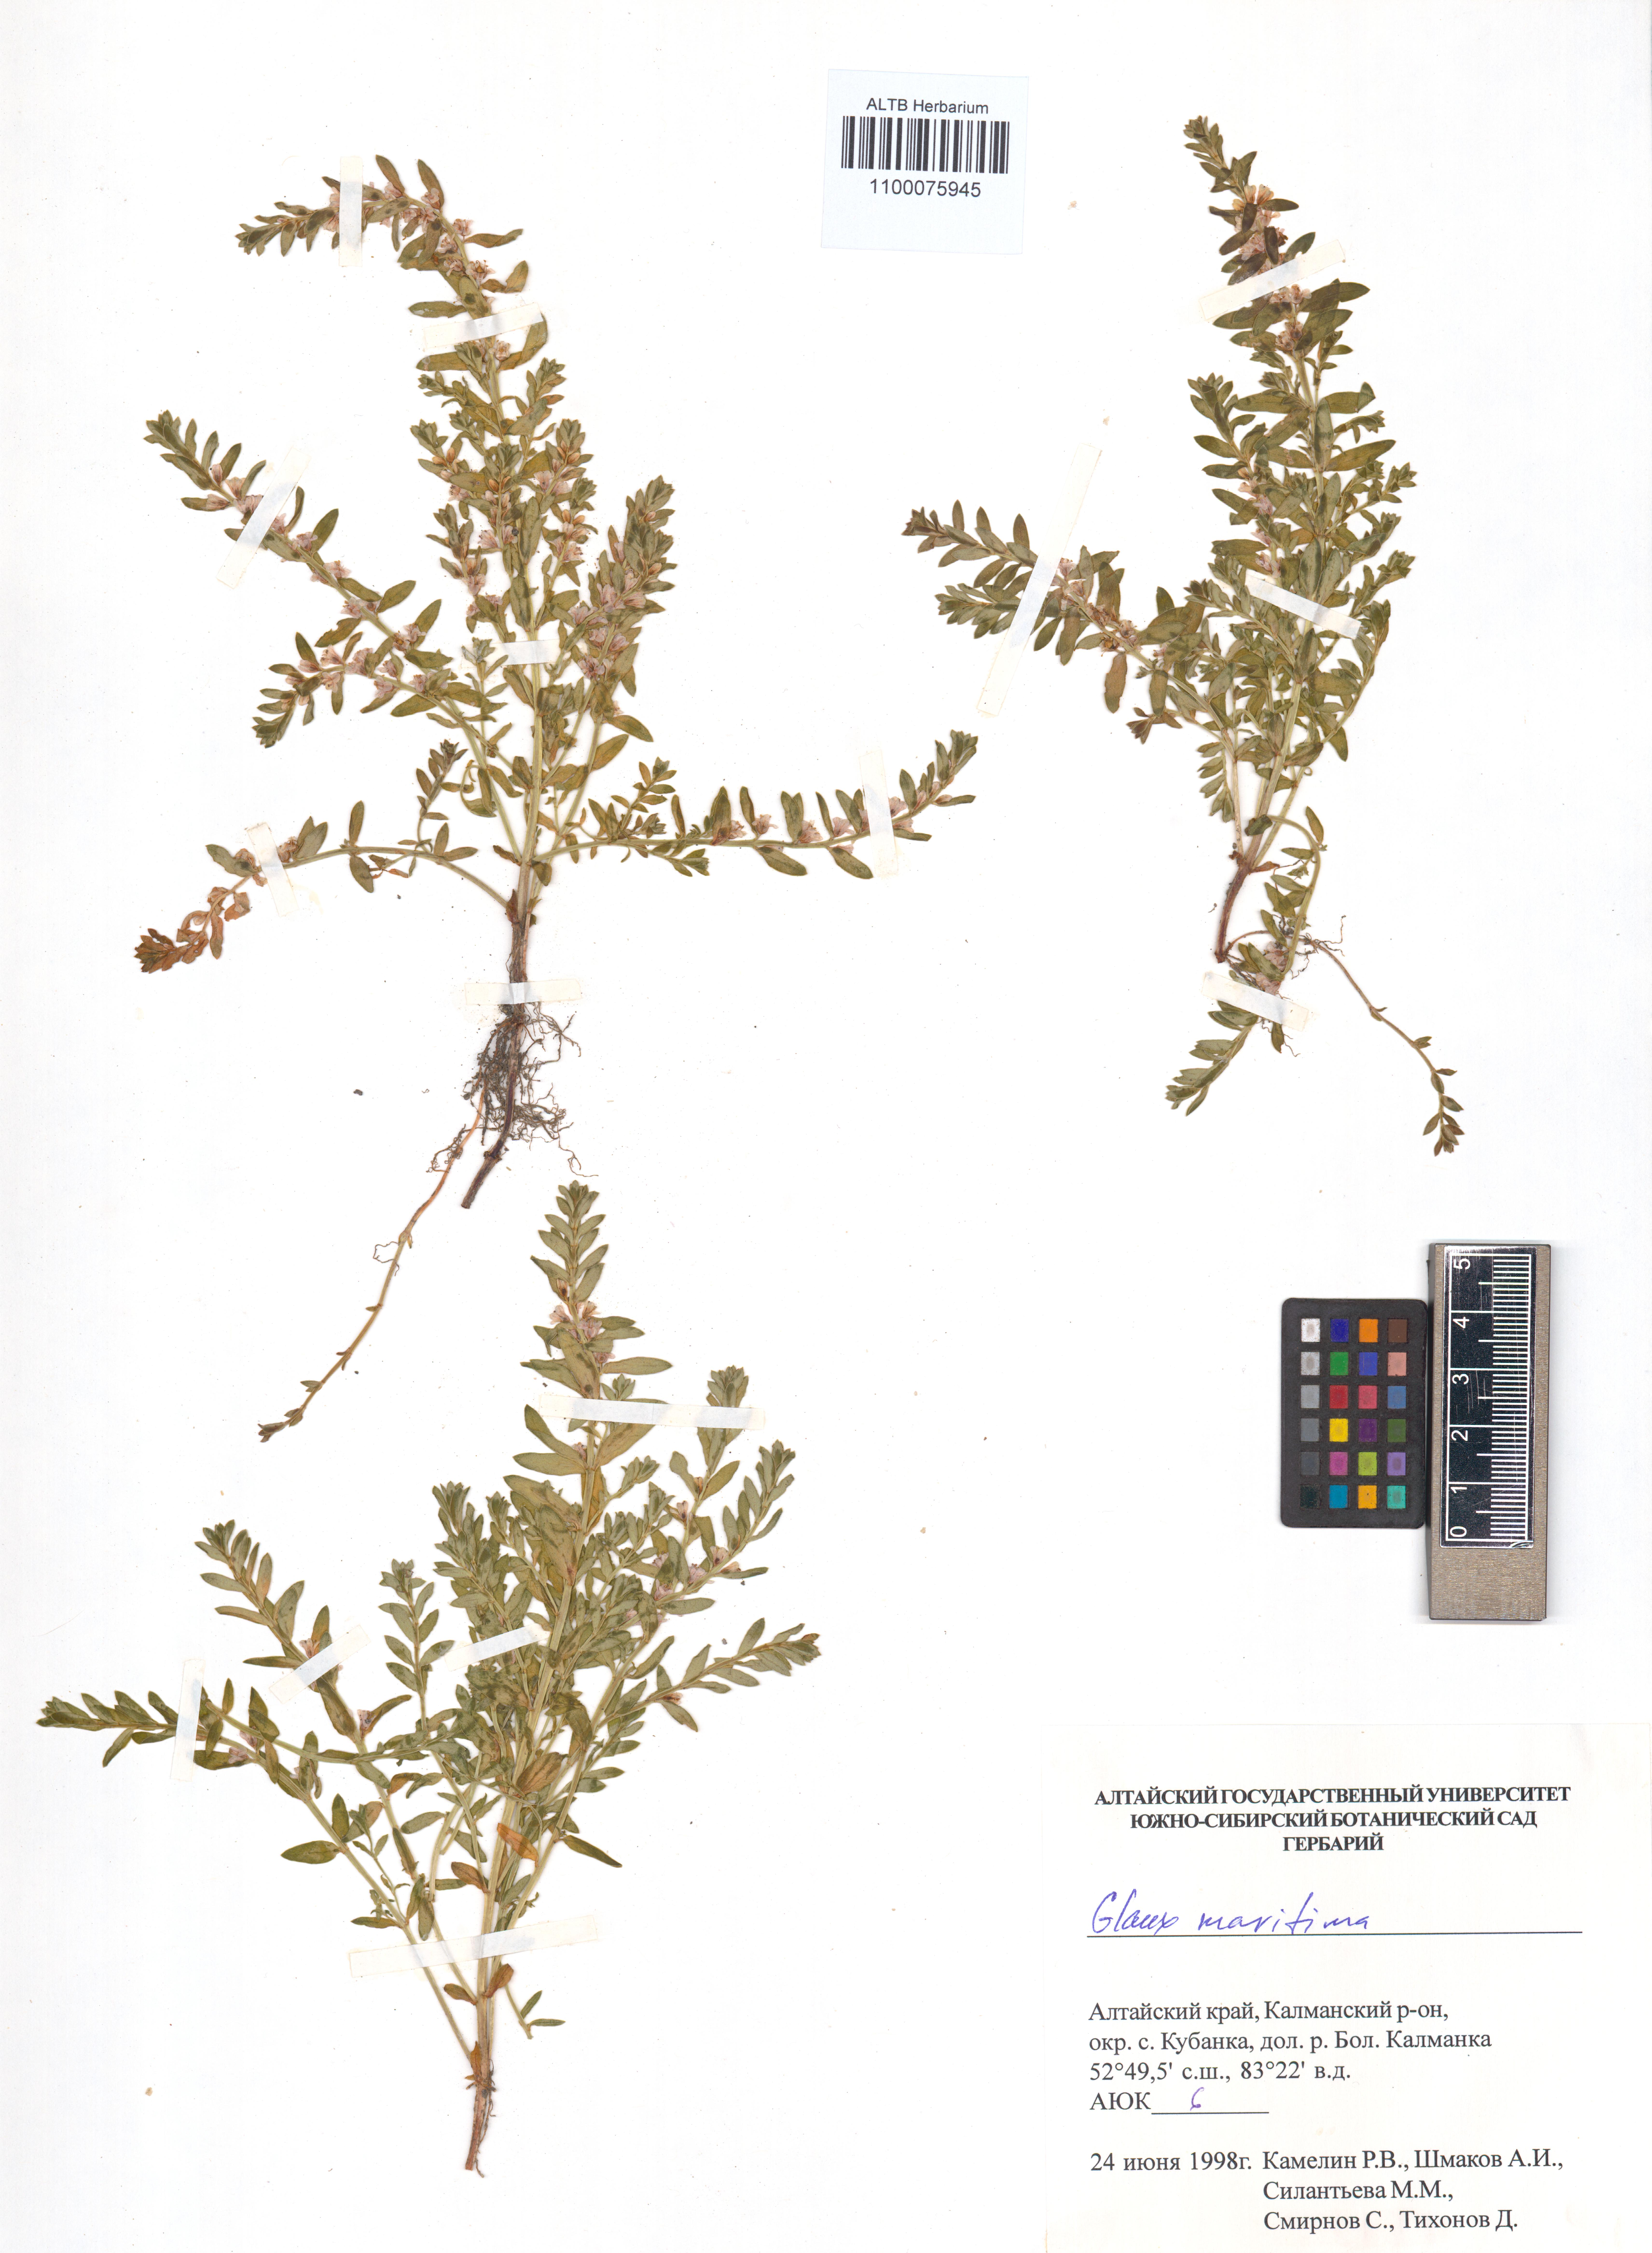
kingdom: Plantae
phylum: Tracheophyta
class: Magnoliopsida
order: Ericales
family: Primulaceae
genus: Lysimachia
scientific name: Lysimachia maritima
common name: Sea milkwort
